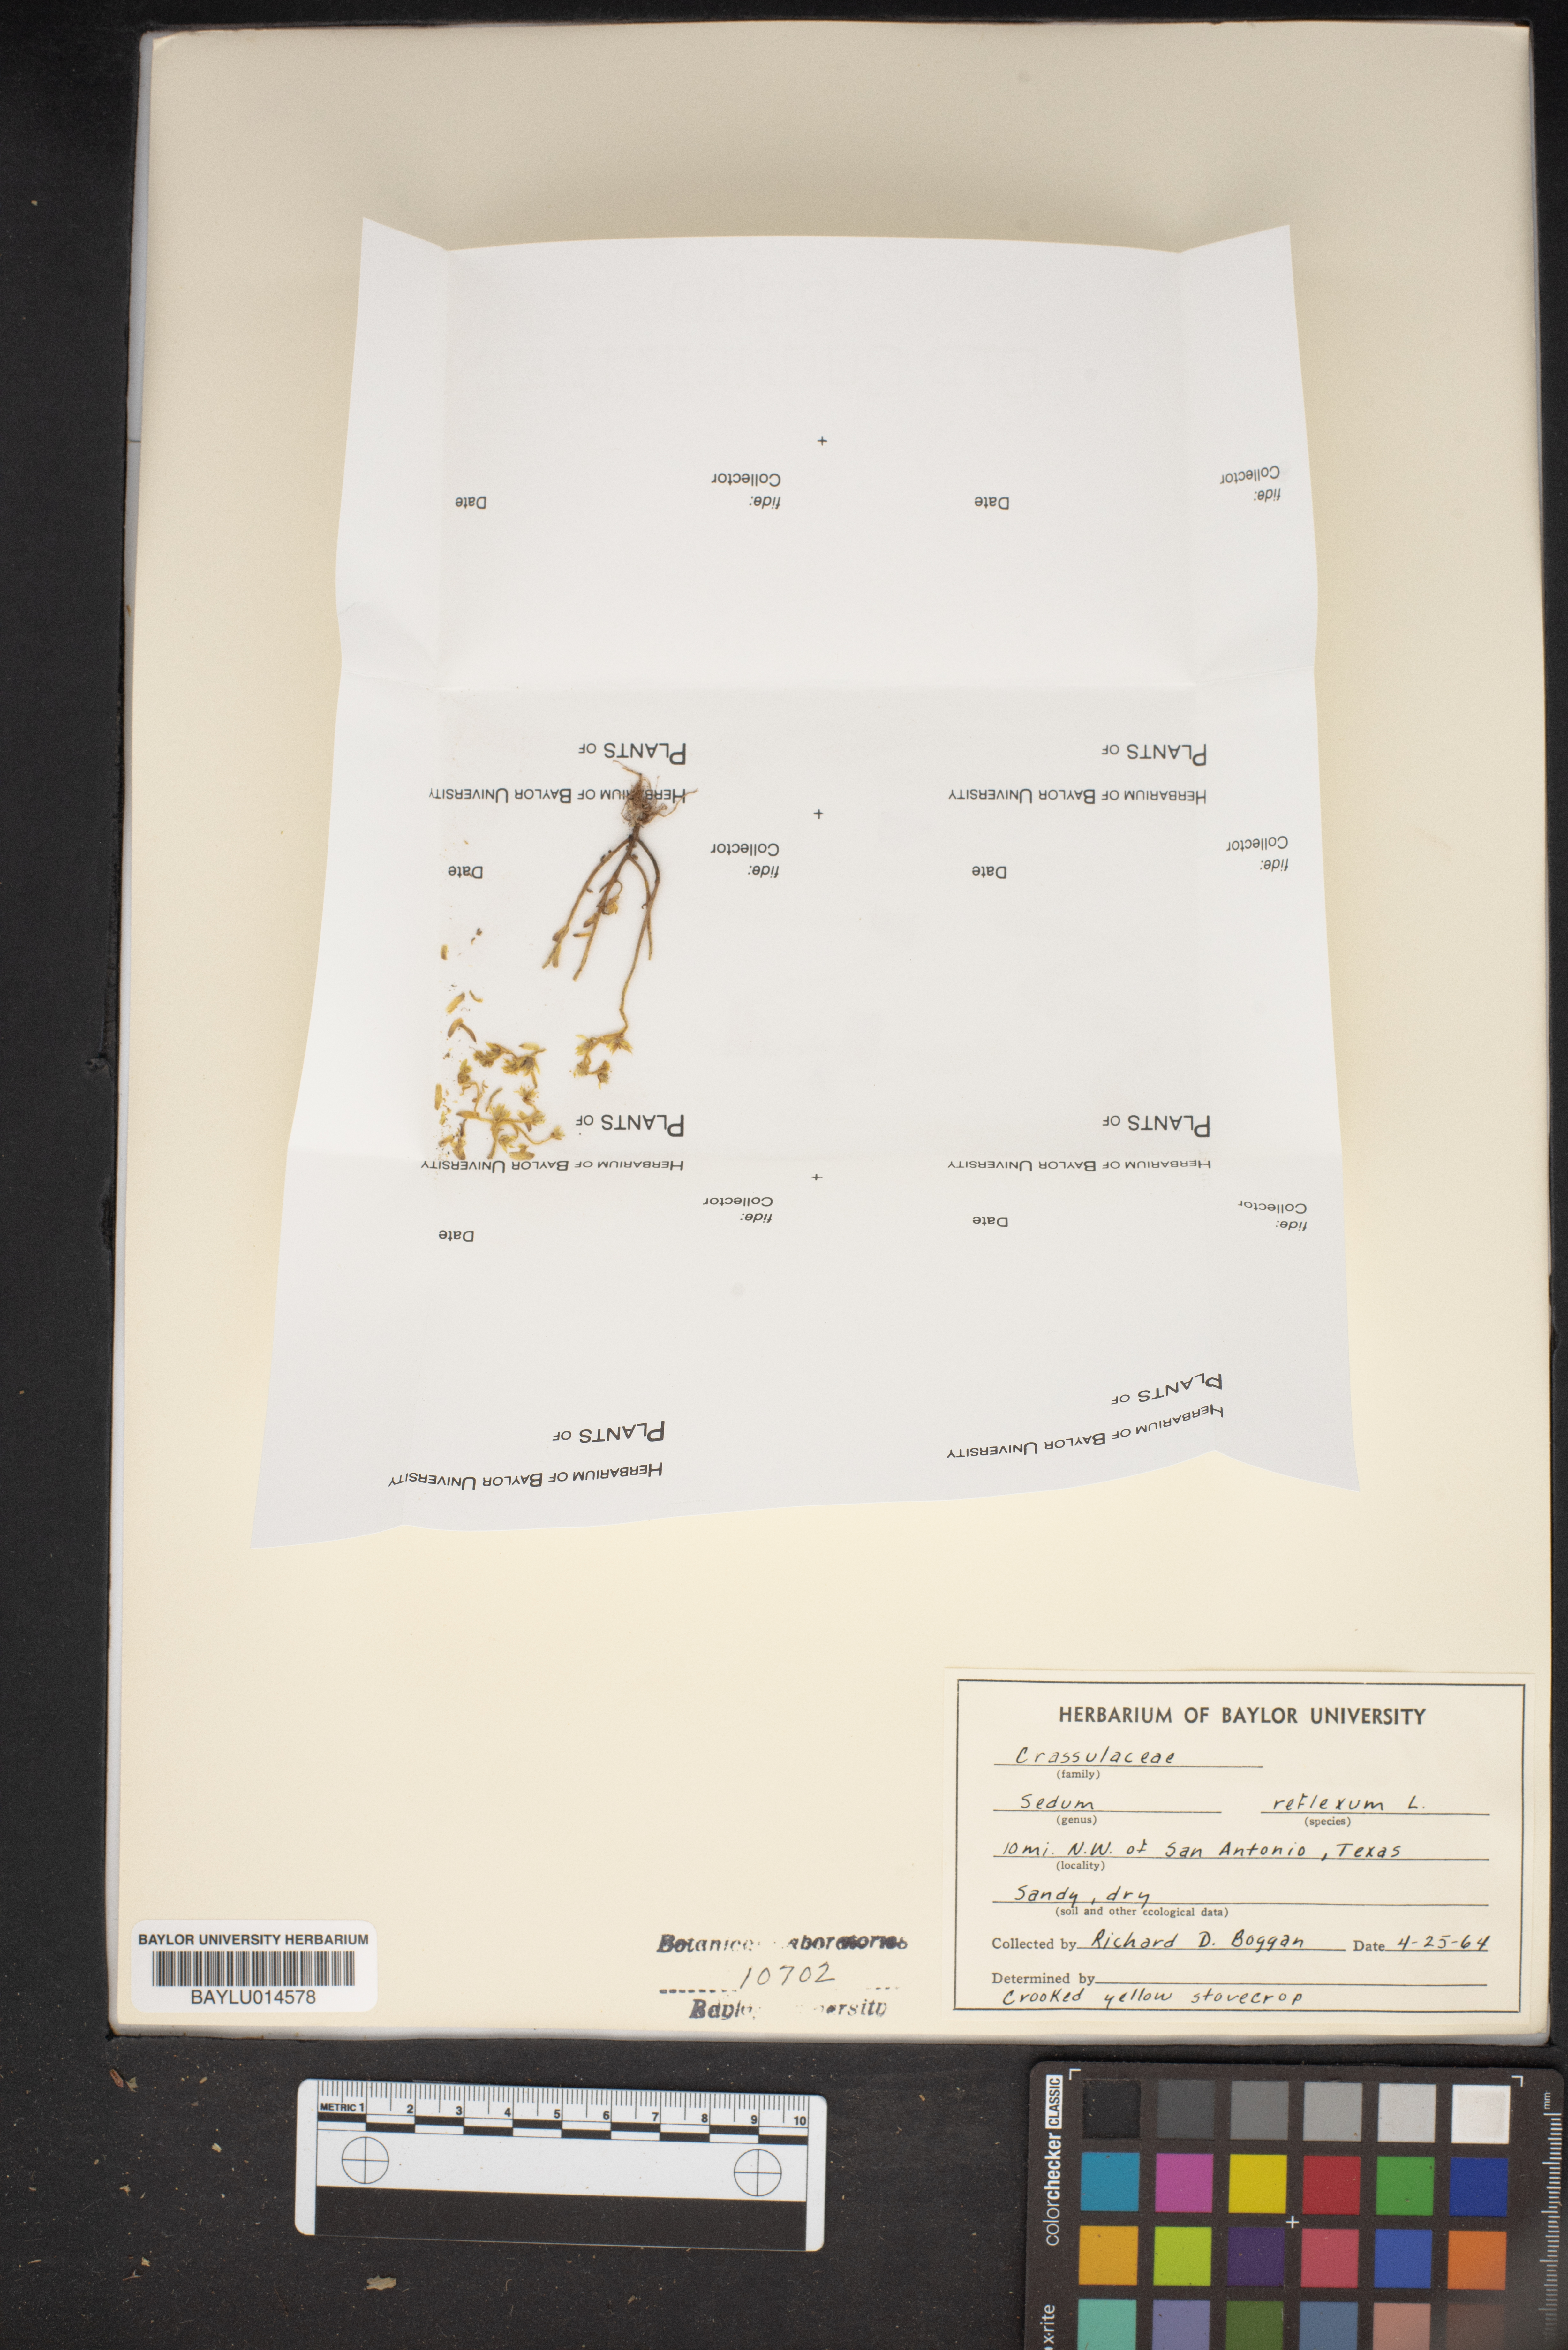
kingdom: Plantae
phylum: Tracheophyta
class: Magnoliopsida
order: Saxifragales
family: Crassulaceae
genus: Petrosedum
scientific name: Petrosedum rupestre
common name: Jenny's stonecrop
